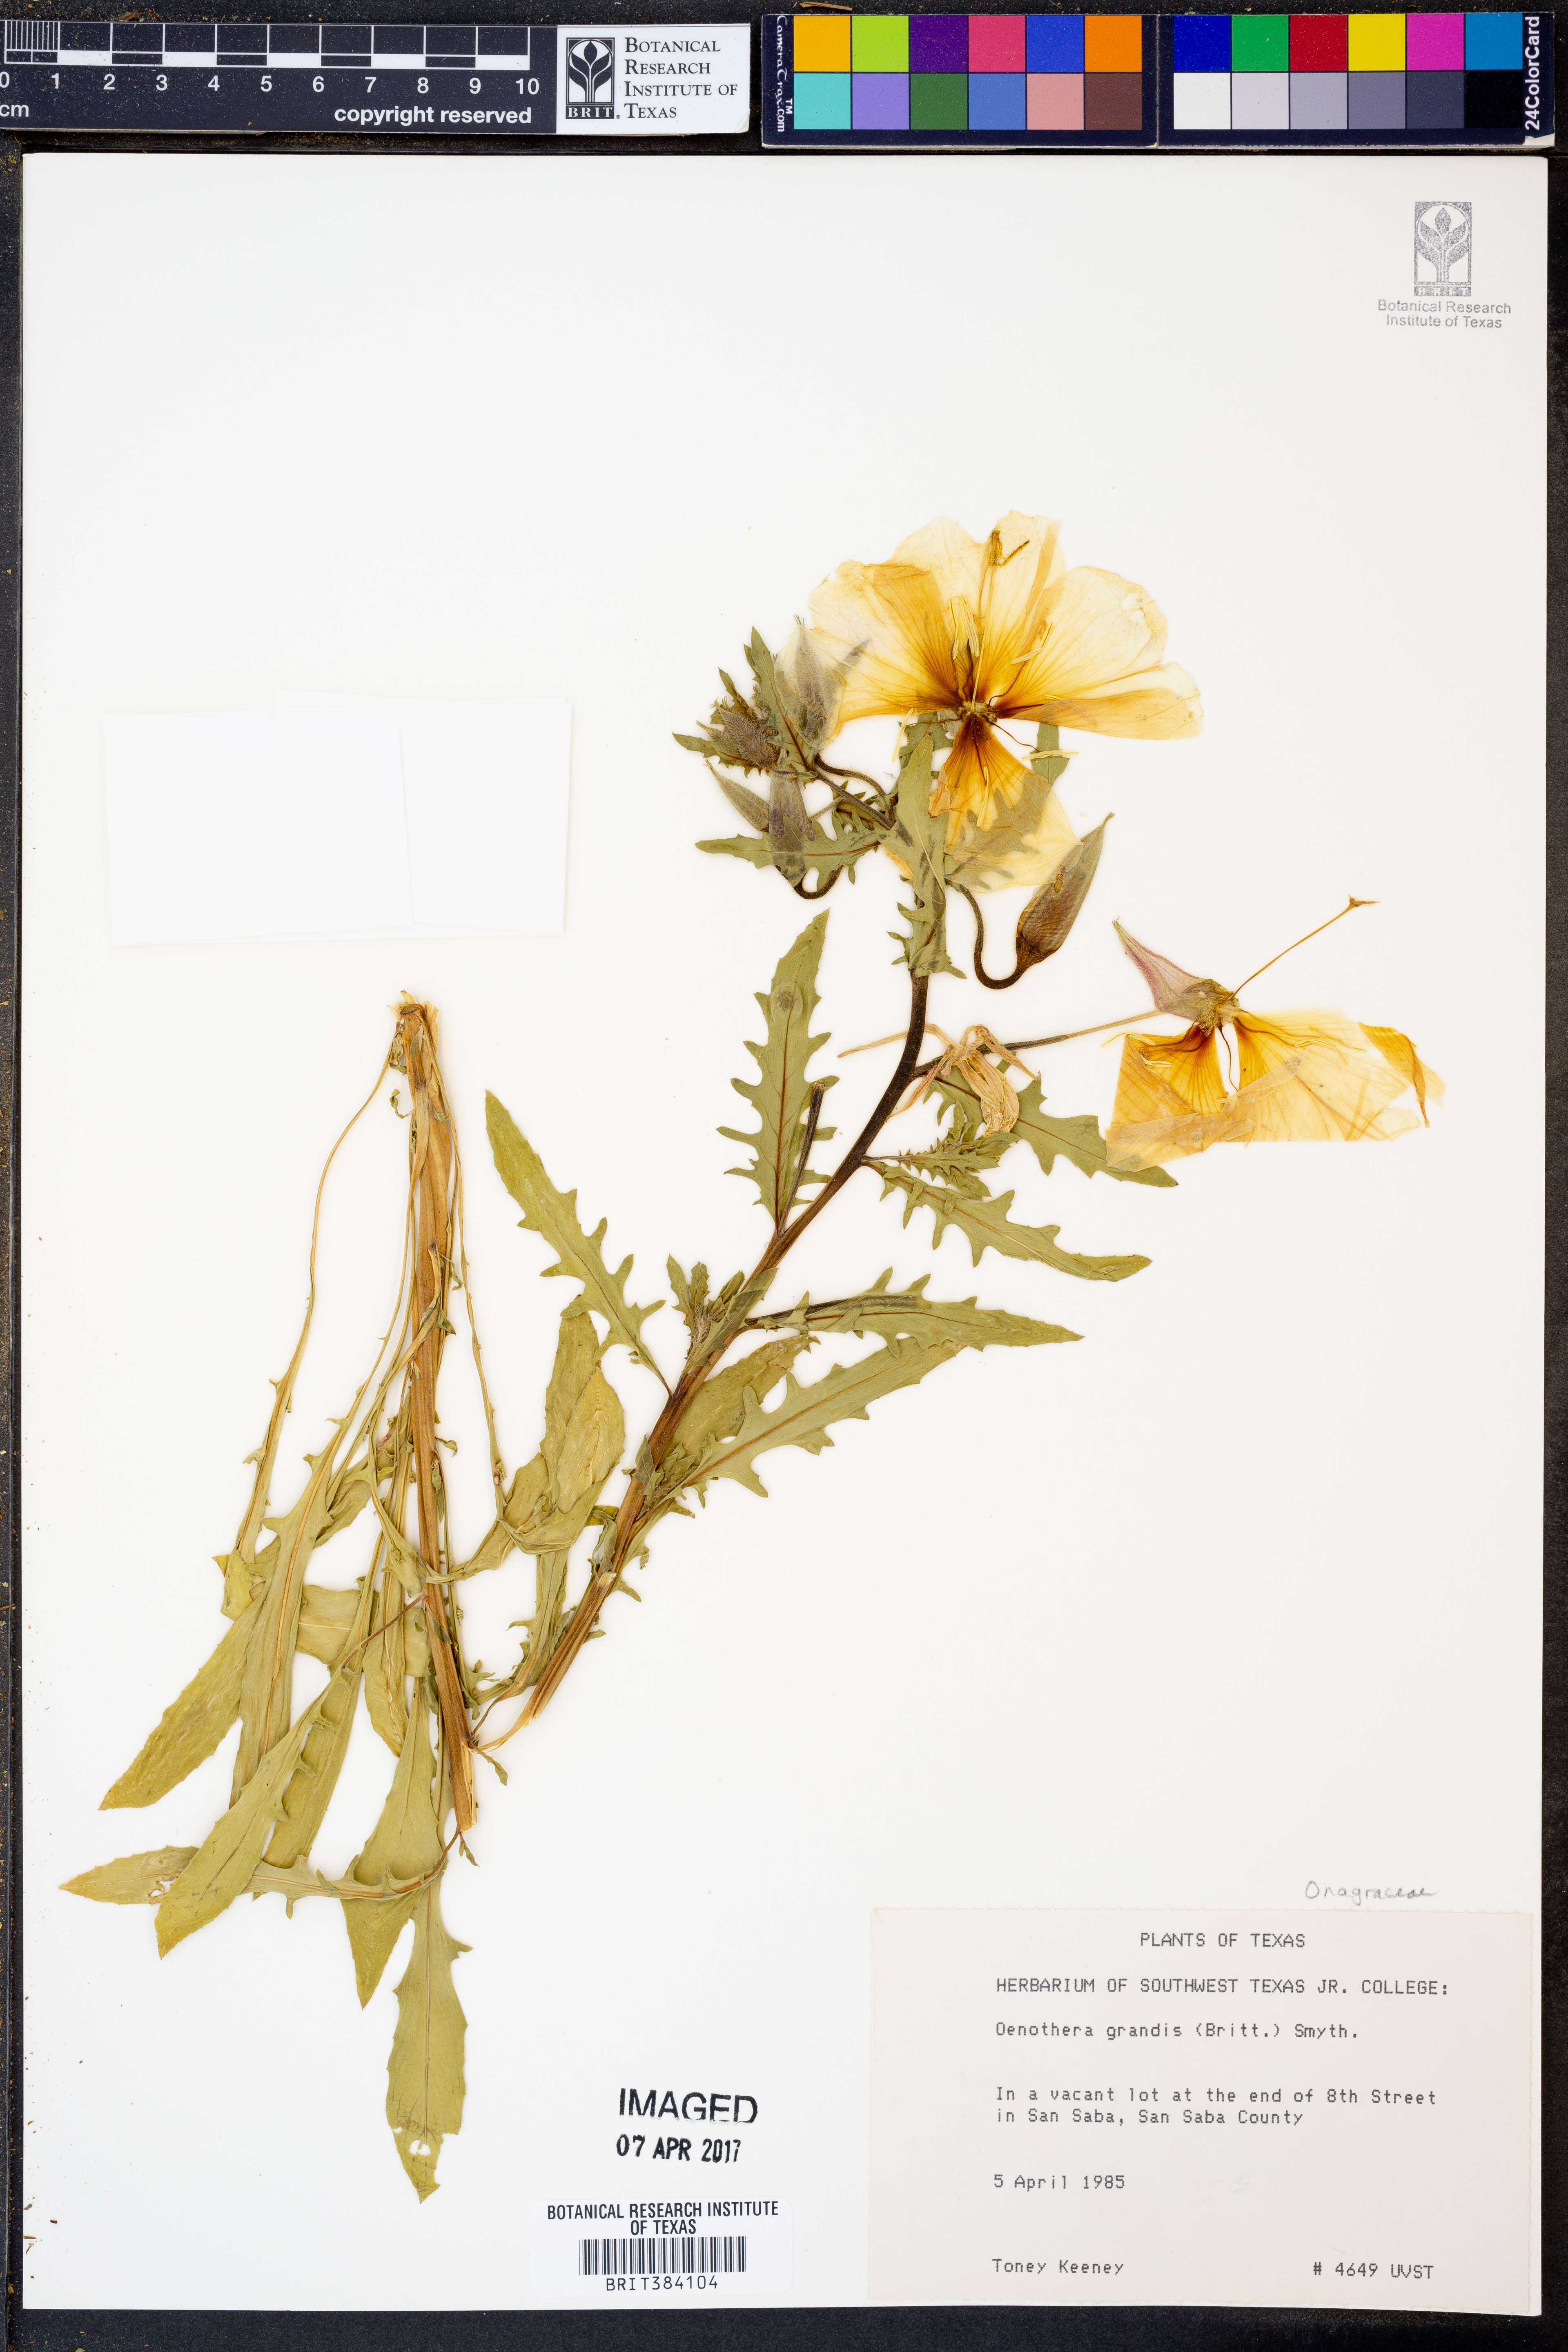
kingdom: Plantae
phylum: Tracheophyta
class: Magnoliopsida
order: Myrtales
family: Onagraceae
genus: Oenothera
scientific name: Oenothera grandis
